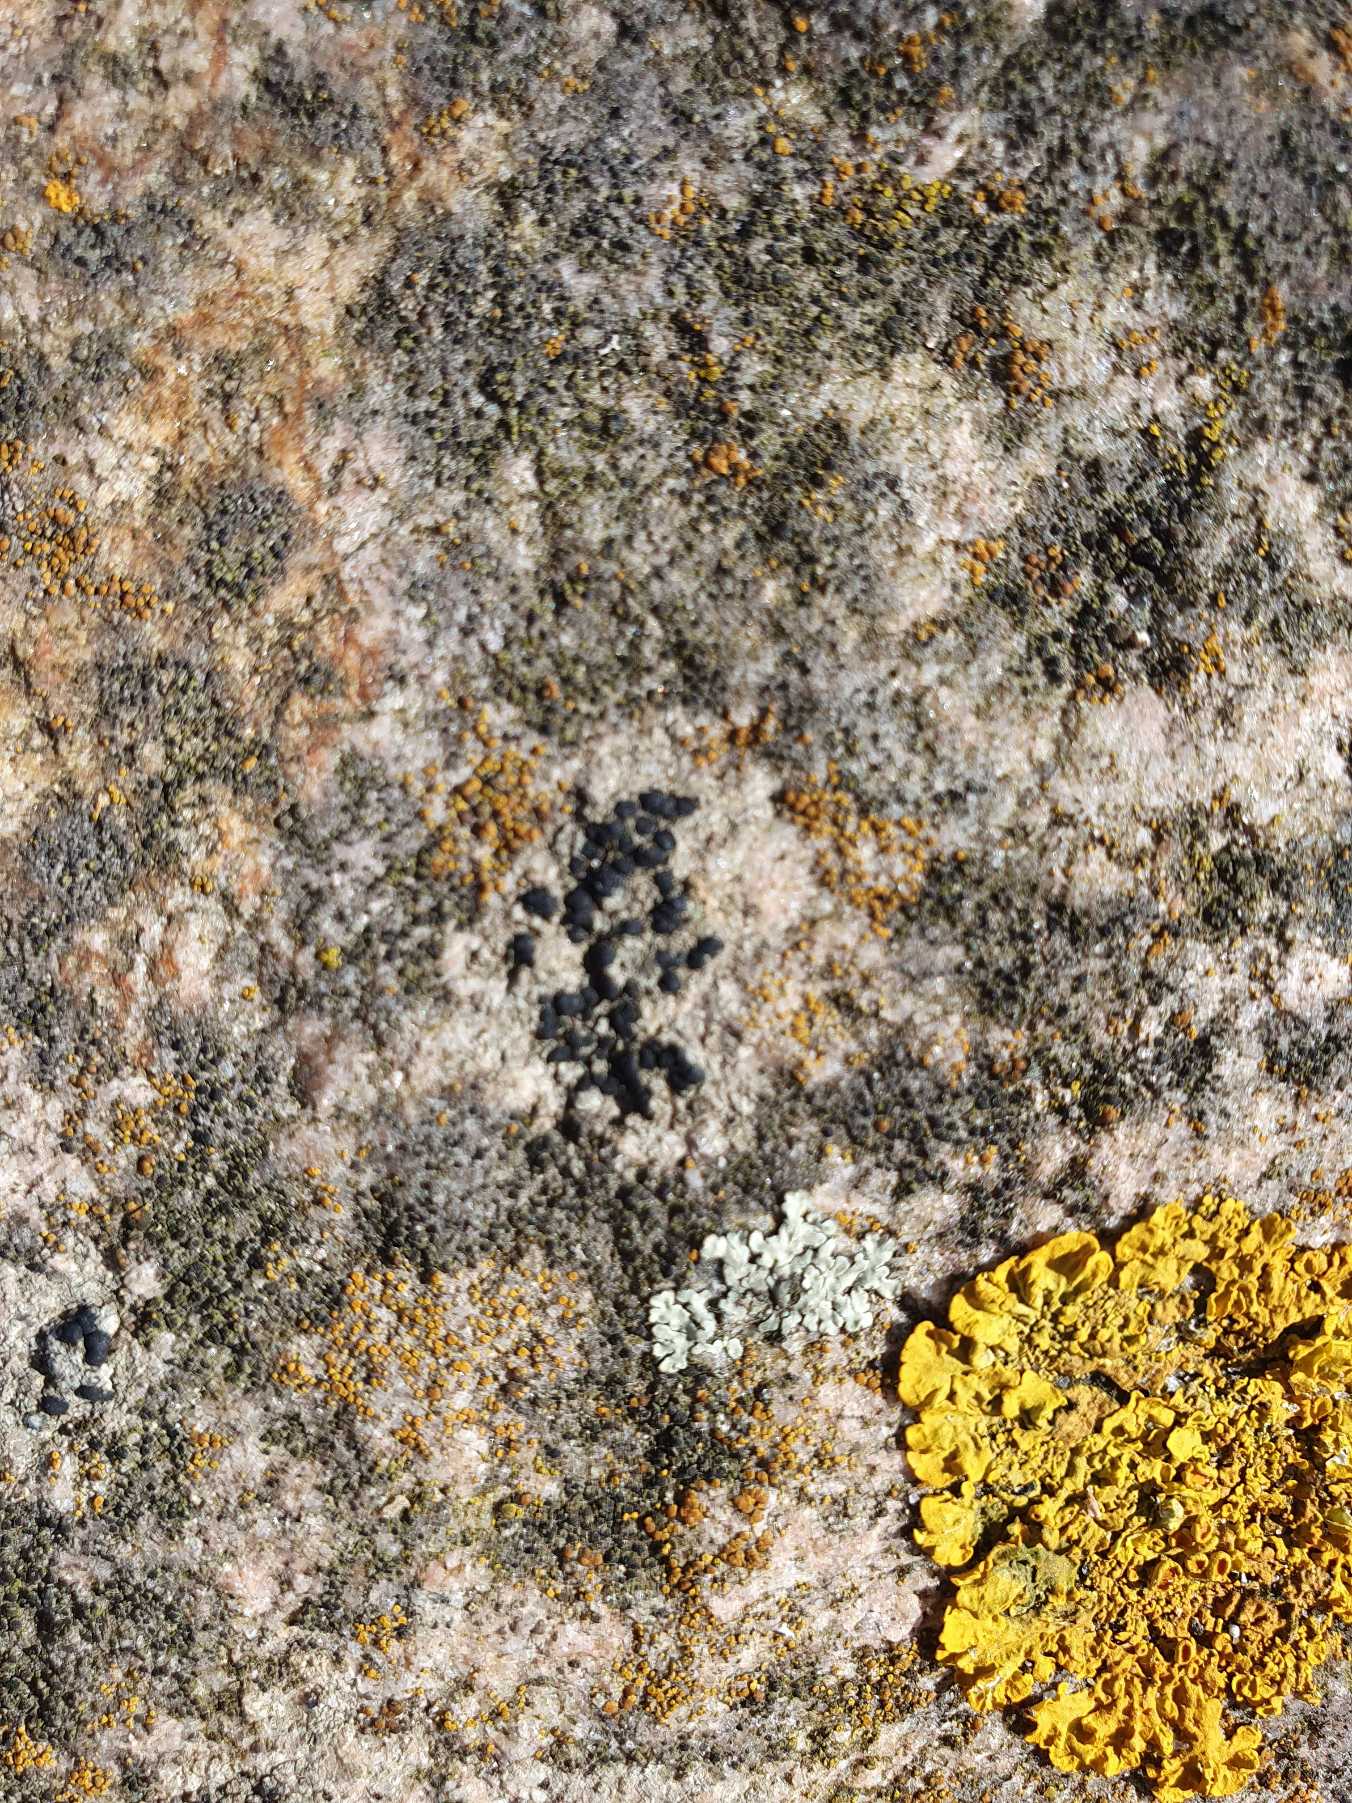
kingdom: Fungi
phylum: Ascomycota
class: Lecanoromycetes
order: Lecanorales
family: Lecanoraceae
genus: Lecidella
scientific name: Lecidella stigmatea
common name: Kalkstens-skivelav
